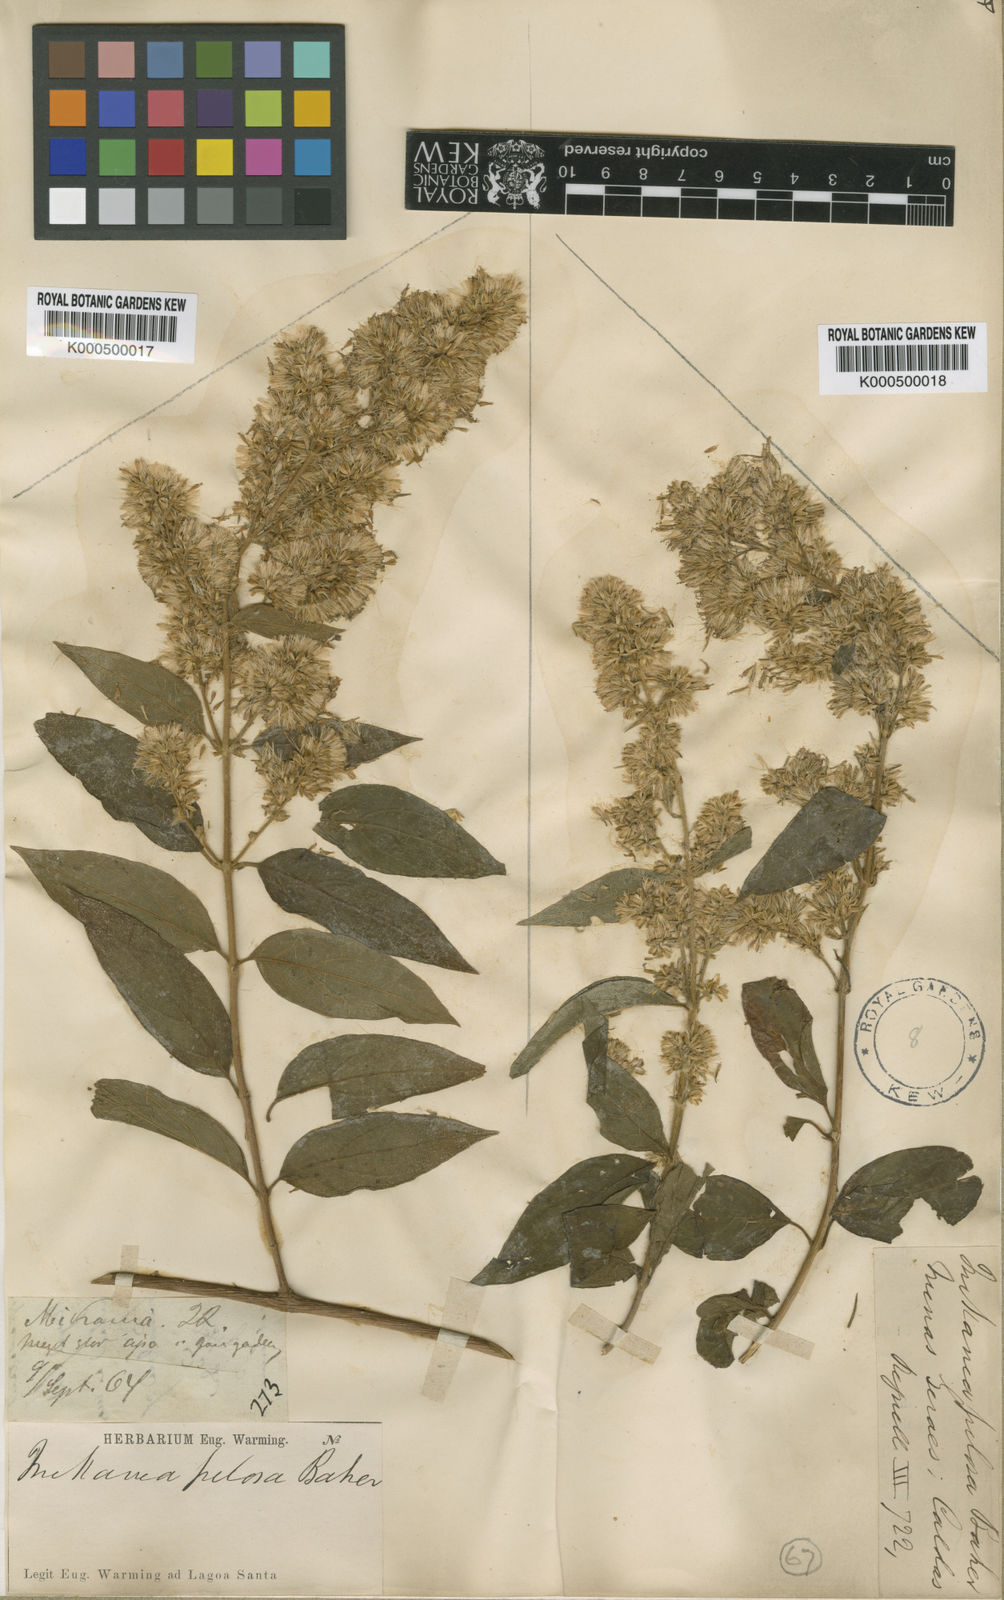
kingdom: Plantae
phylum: Tracheophyta
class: Magnoliopsida
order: Asterales
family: Asteraceae
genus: Mikania
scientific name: Mikania banisteriae
